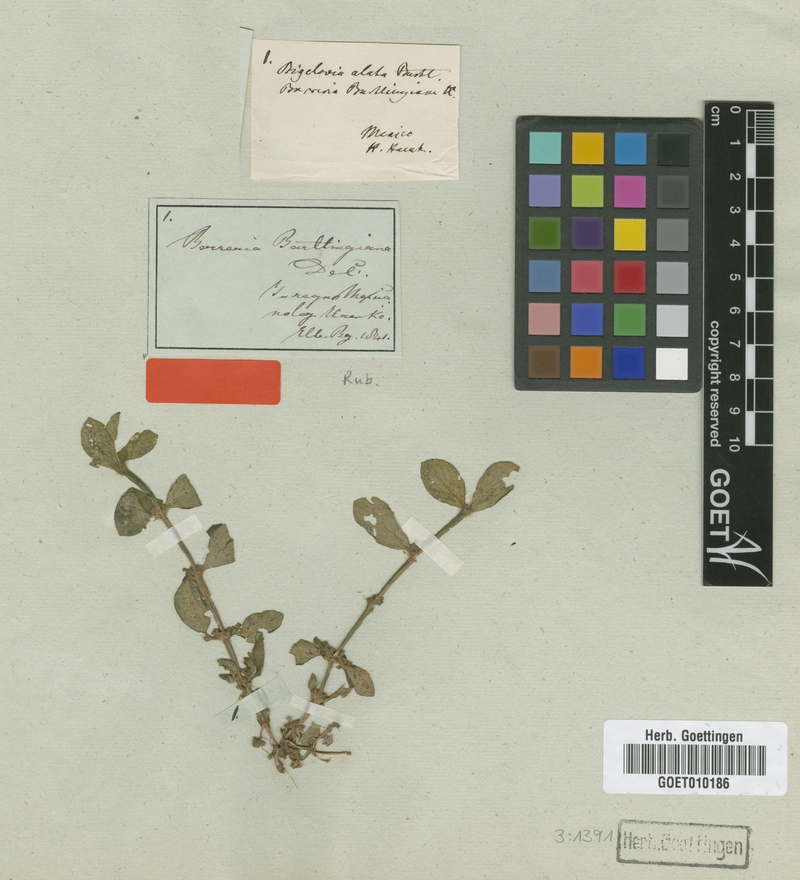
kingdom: Plantae
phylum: Tracheophyta
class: Magnoliopsida
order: Gentianales
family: Rubiaceae
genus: Spermacoce
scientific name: Spermacoce latifolia
